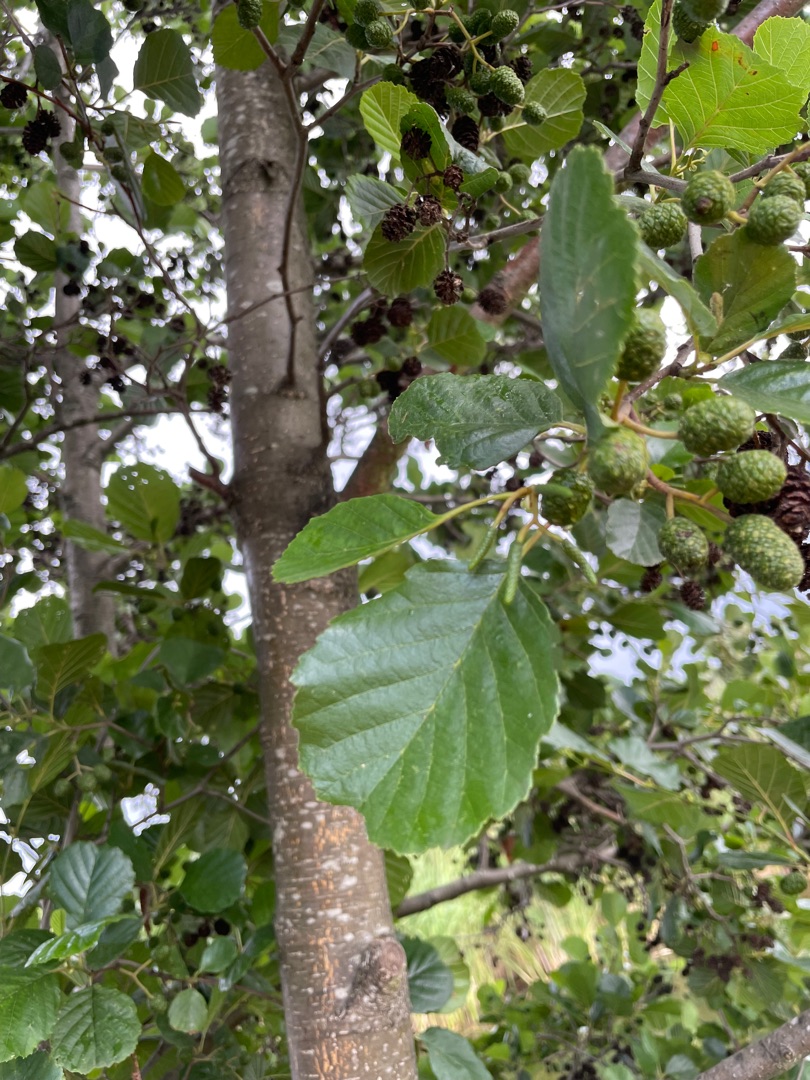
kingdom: Plantae
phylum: Tracheophyta
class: Magnoliopsida
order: Fagales
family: Betulaceae
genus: Alnus
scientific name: Alnus glutinosa
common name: Rød-el
